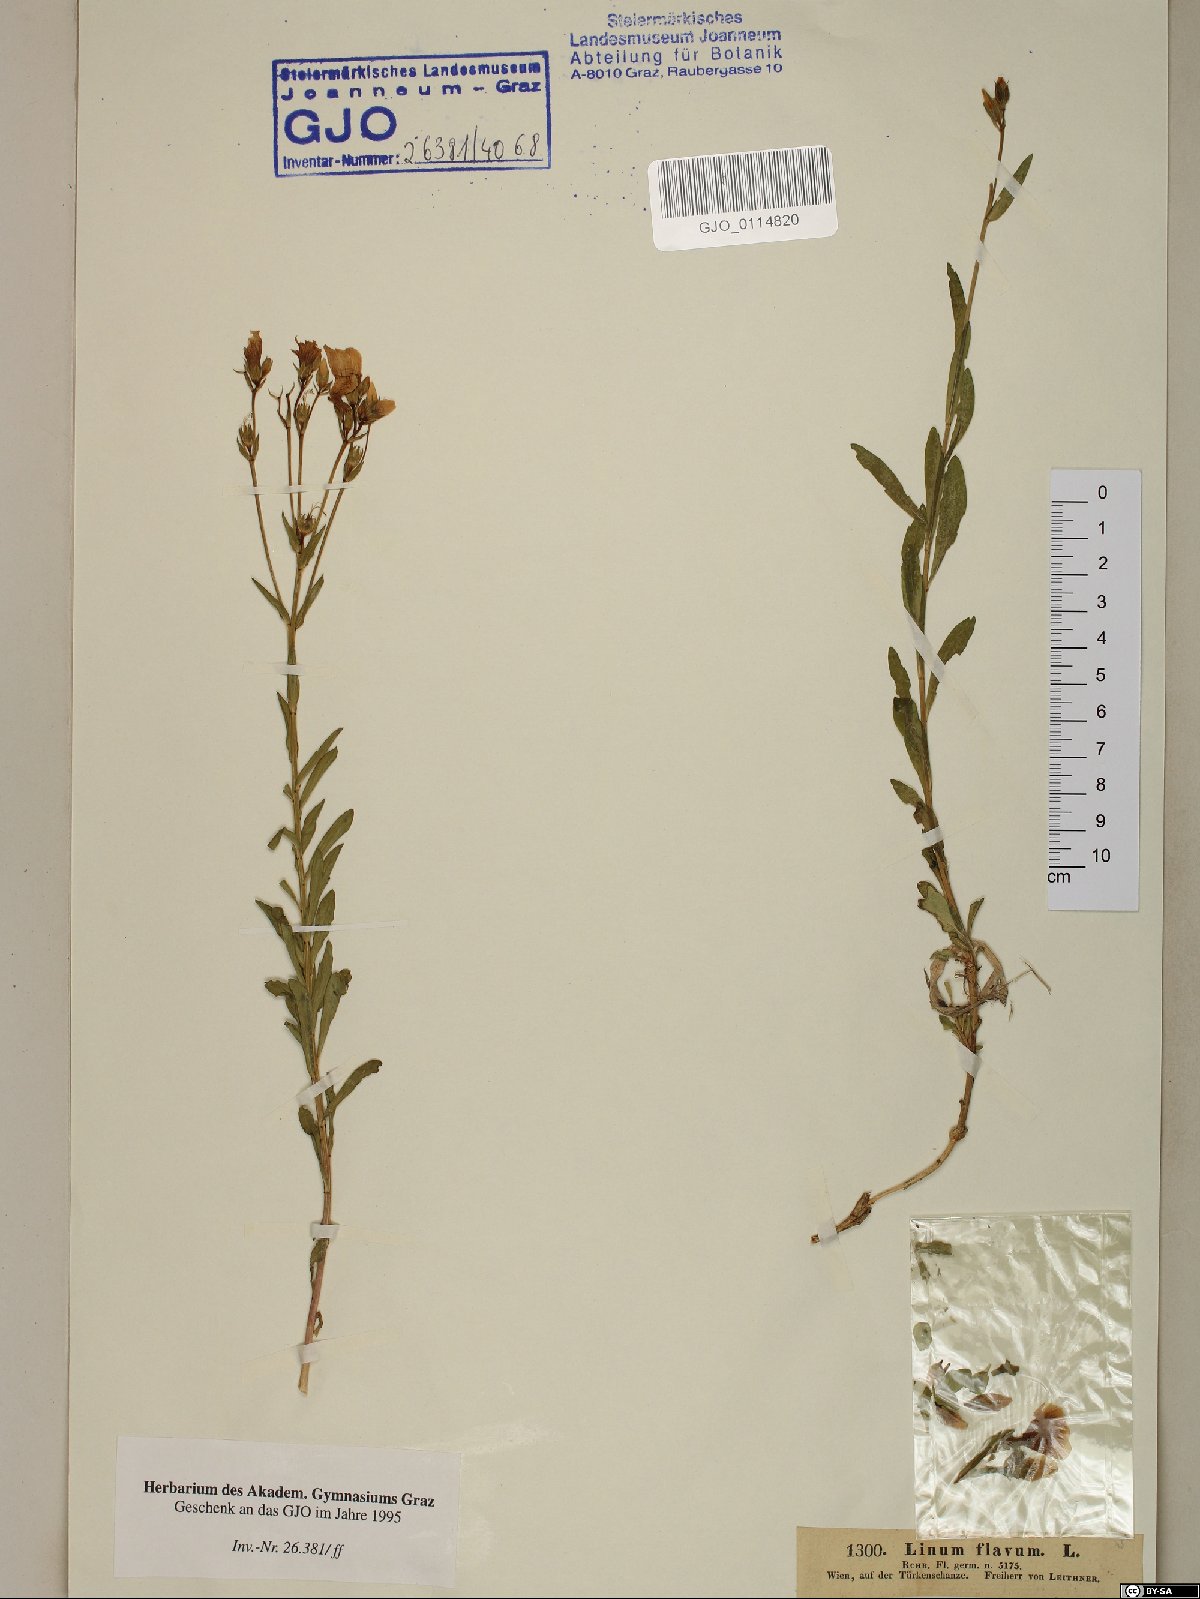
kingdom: Plantae
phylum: Tracheophyta
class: Magnoliopsida
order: Malpighiales
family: Linaceae
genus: Linum
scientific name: Linum flavum
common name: Yellow flax
